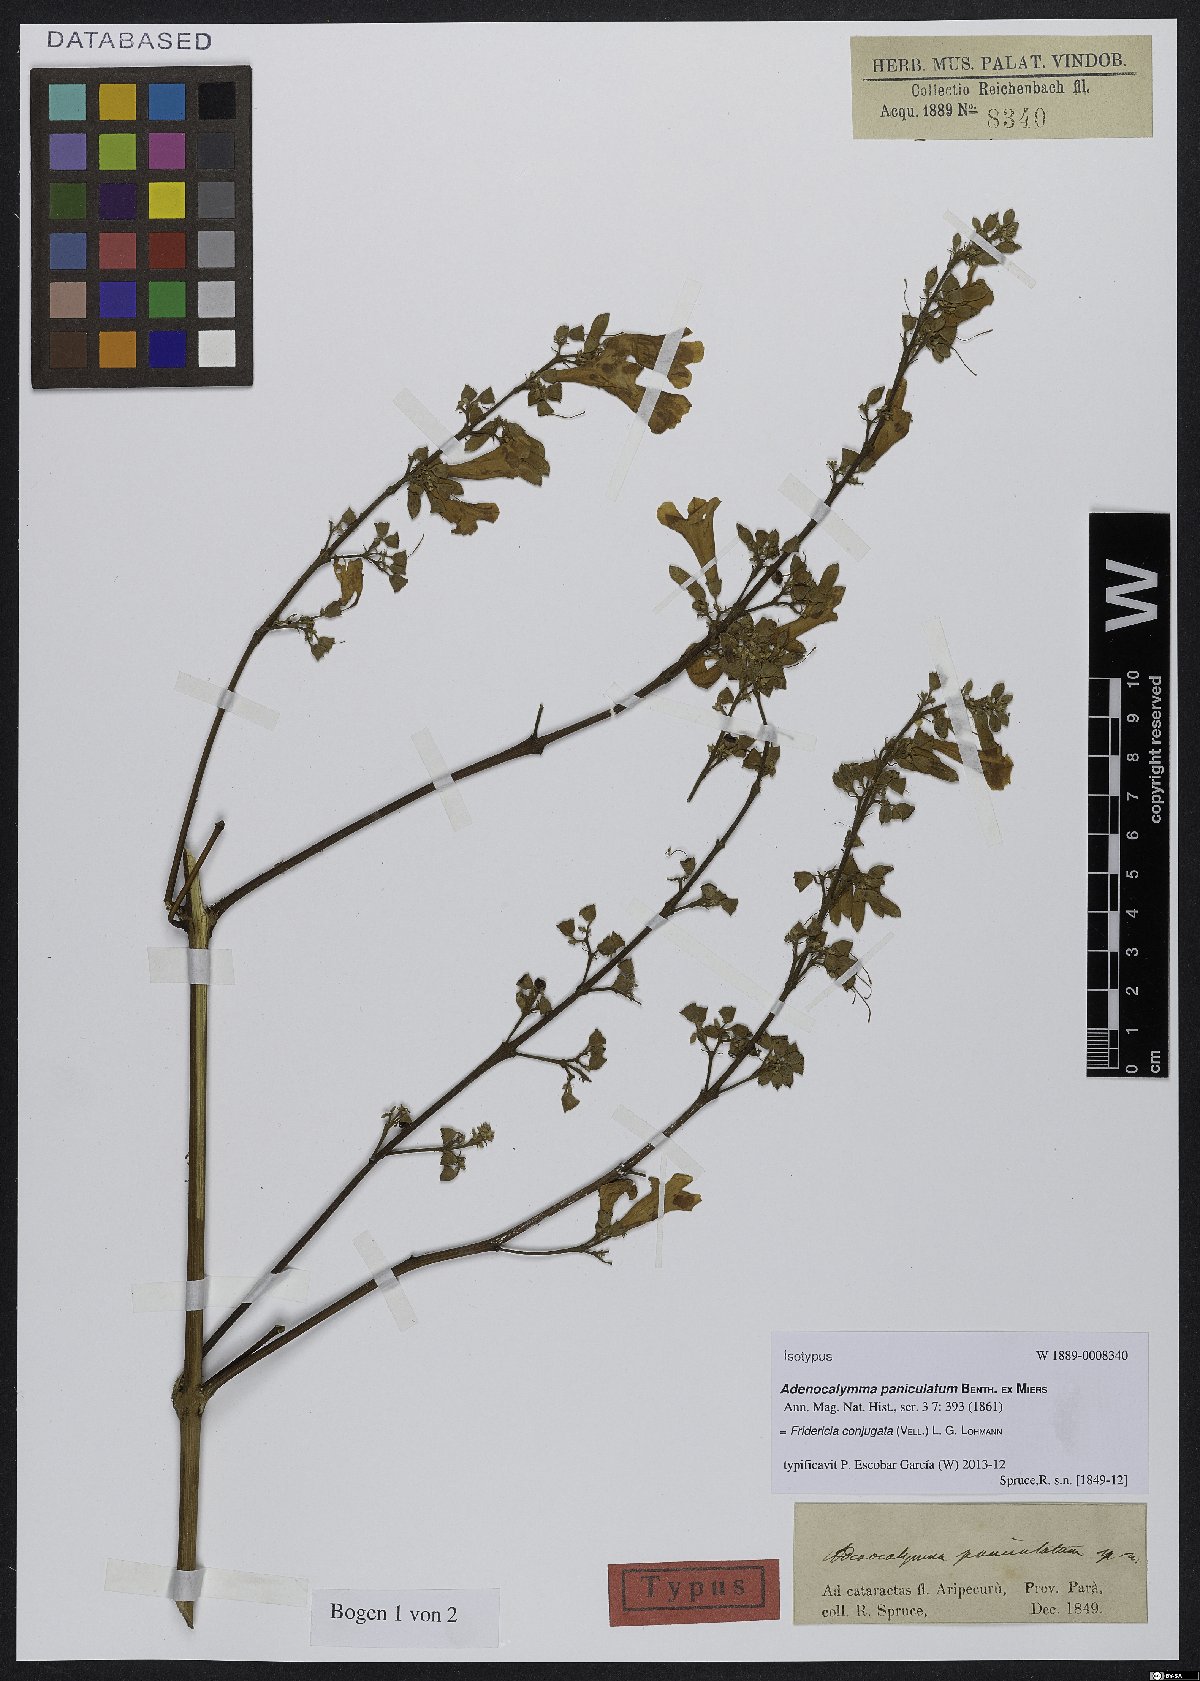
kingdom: Plantae
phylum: Tracheophyta
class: Magnoliopsida
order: Lamiales
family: Bignoniaceae
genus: Fridericia
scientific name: Fridericia conjugata
